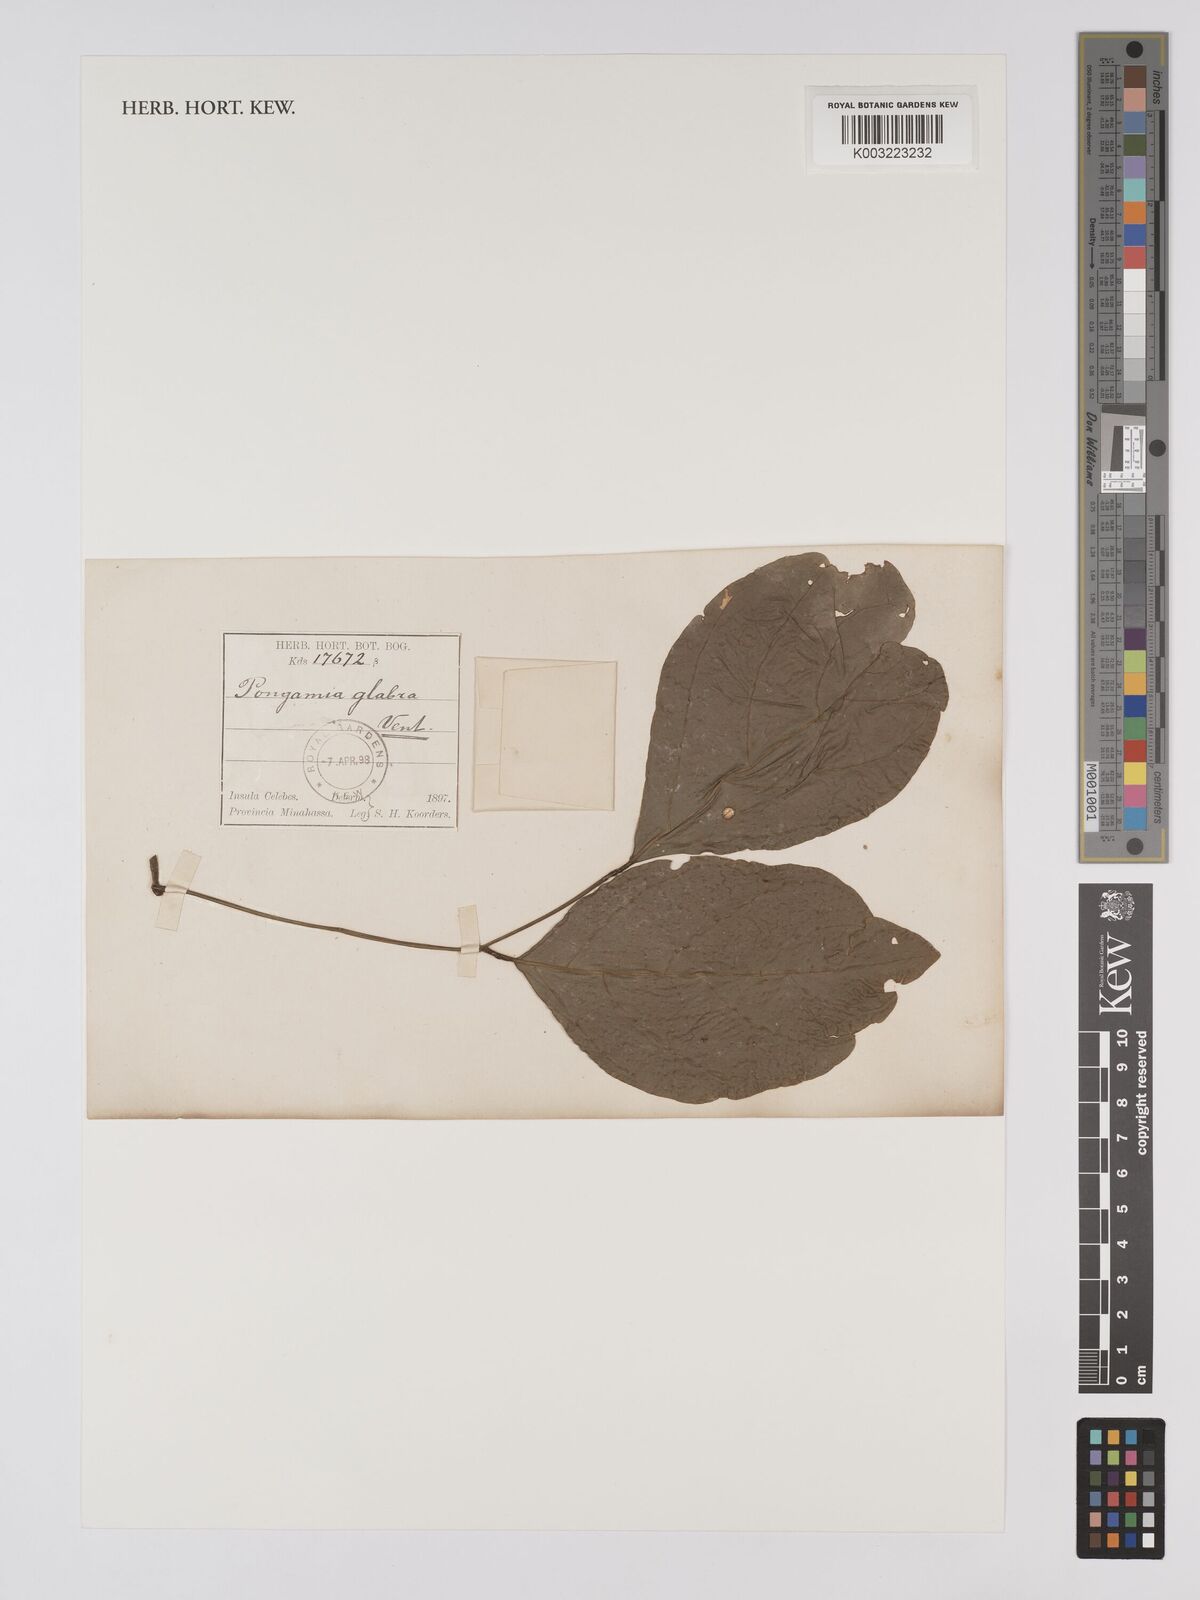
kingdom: Plantae
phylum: Tracheophyta
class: Magnoliopsida
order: Fabales
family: Fabaceae
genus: Pongamia
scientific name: Pongamia pinnata
